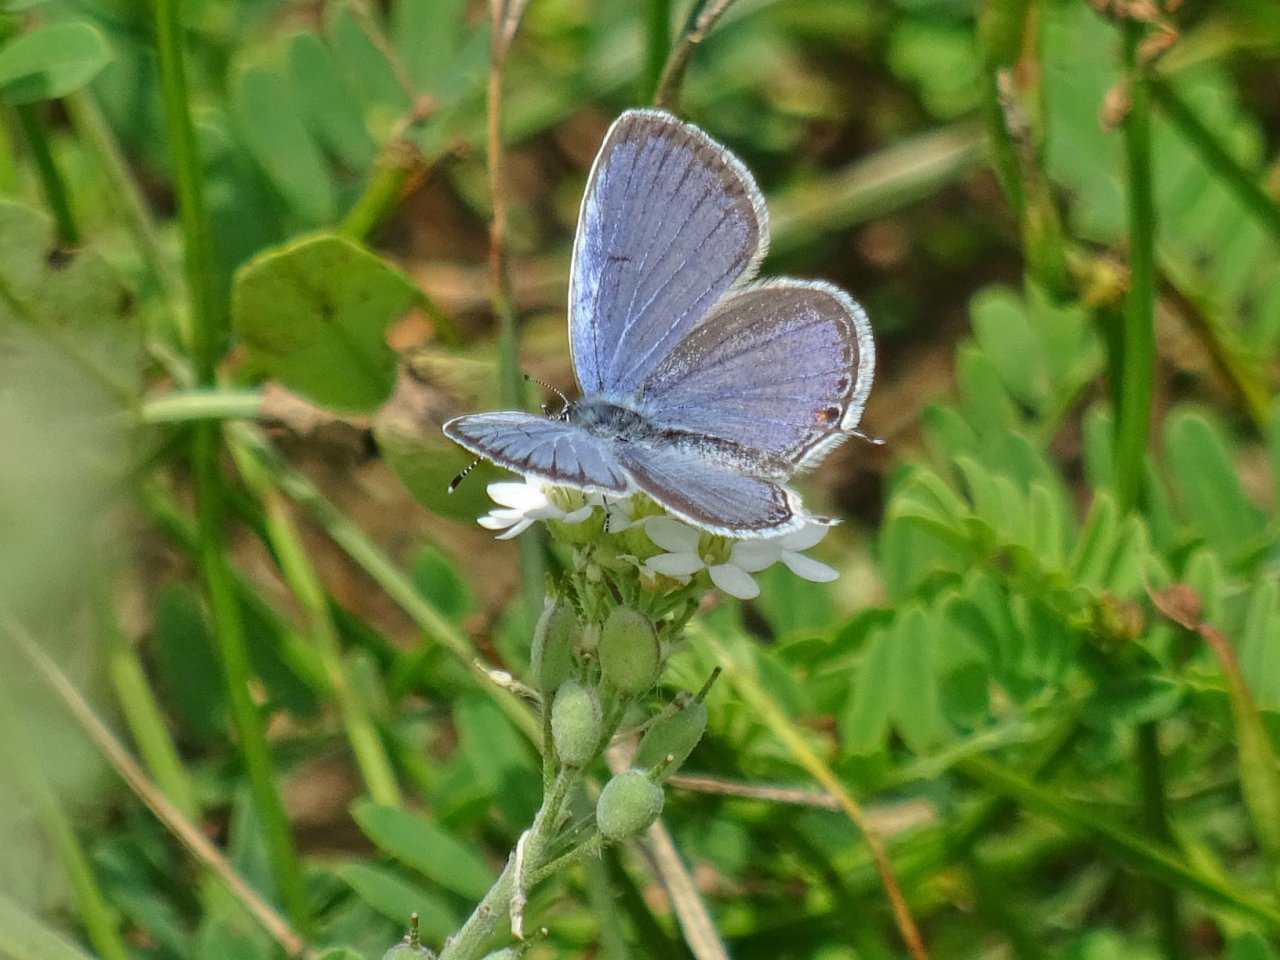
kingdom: Animalia
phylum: Arthropoda
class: Insecta
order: Lepidoptera
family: Lycaenidae
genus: Elkalyce
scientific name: Elkalyce comyntas
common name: Eastern Tailed-Blue
